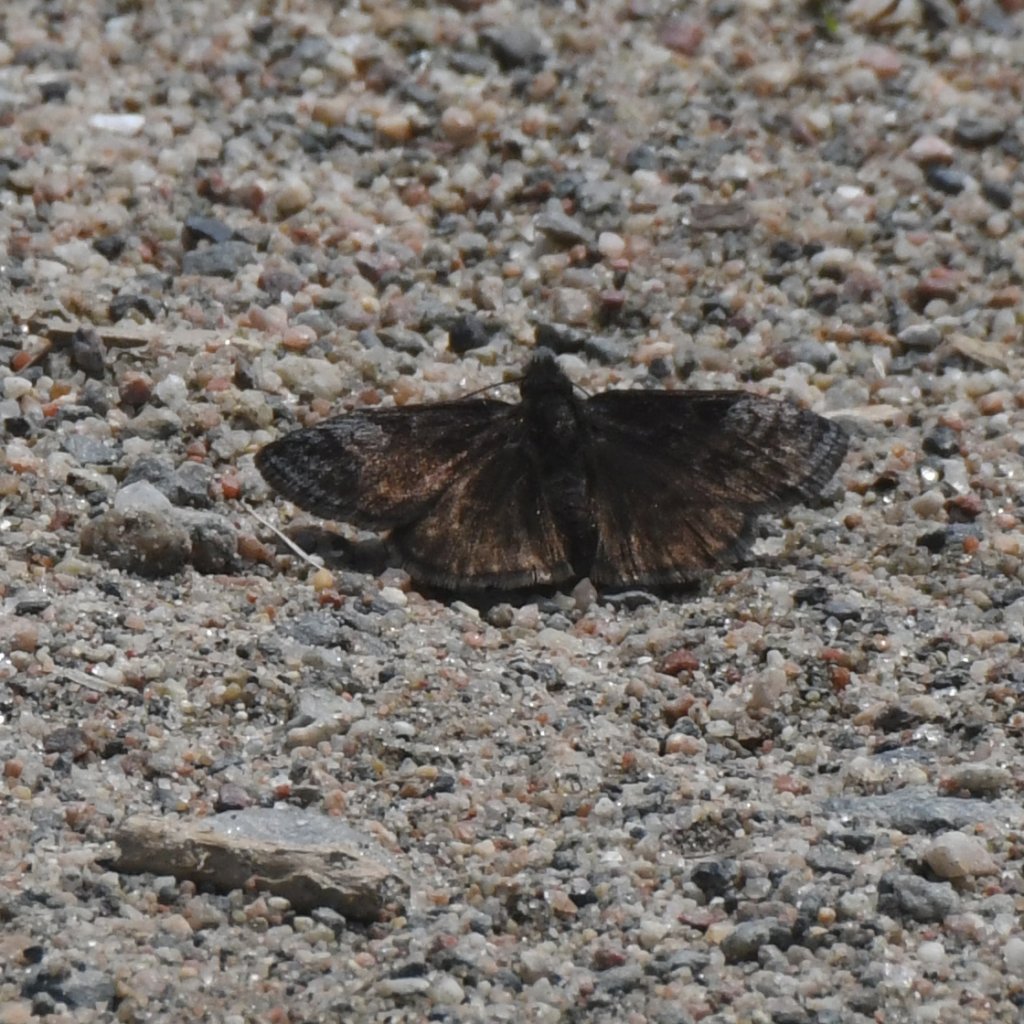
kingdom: Animalia
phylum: Arthropoda
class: Insecta
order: Lepidoptera
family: Hesperiidae
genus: Erynnis
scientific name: Erynnis icelus
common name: Dreamy Duskywing
